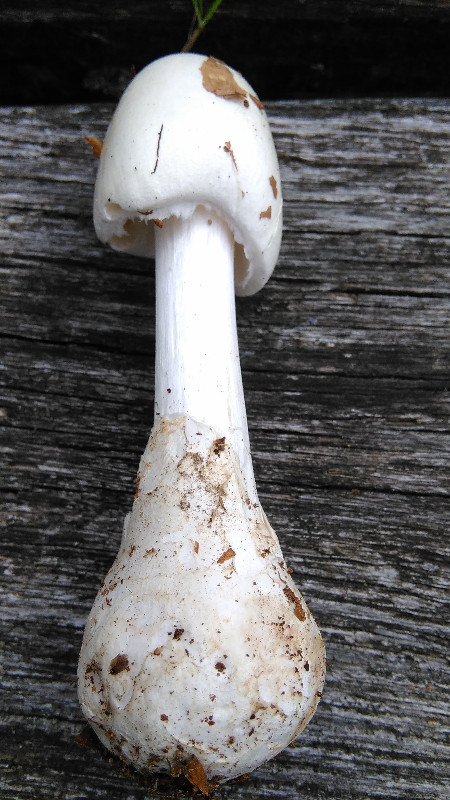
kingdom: Fungi
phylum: Basidiomycota
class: Agaricomycetes
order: Agaricales
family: Amanitaceae
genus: Amanita
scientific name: Amanita virosa
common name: snehvid fluesvamp
